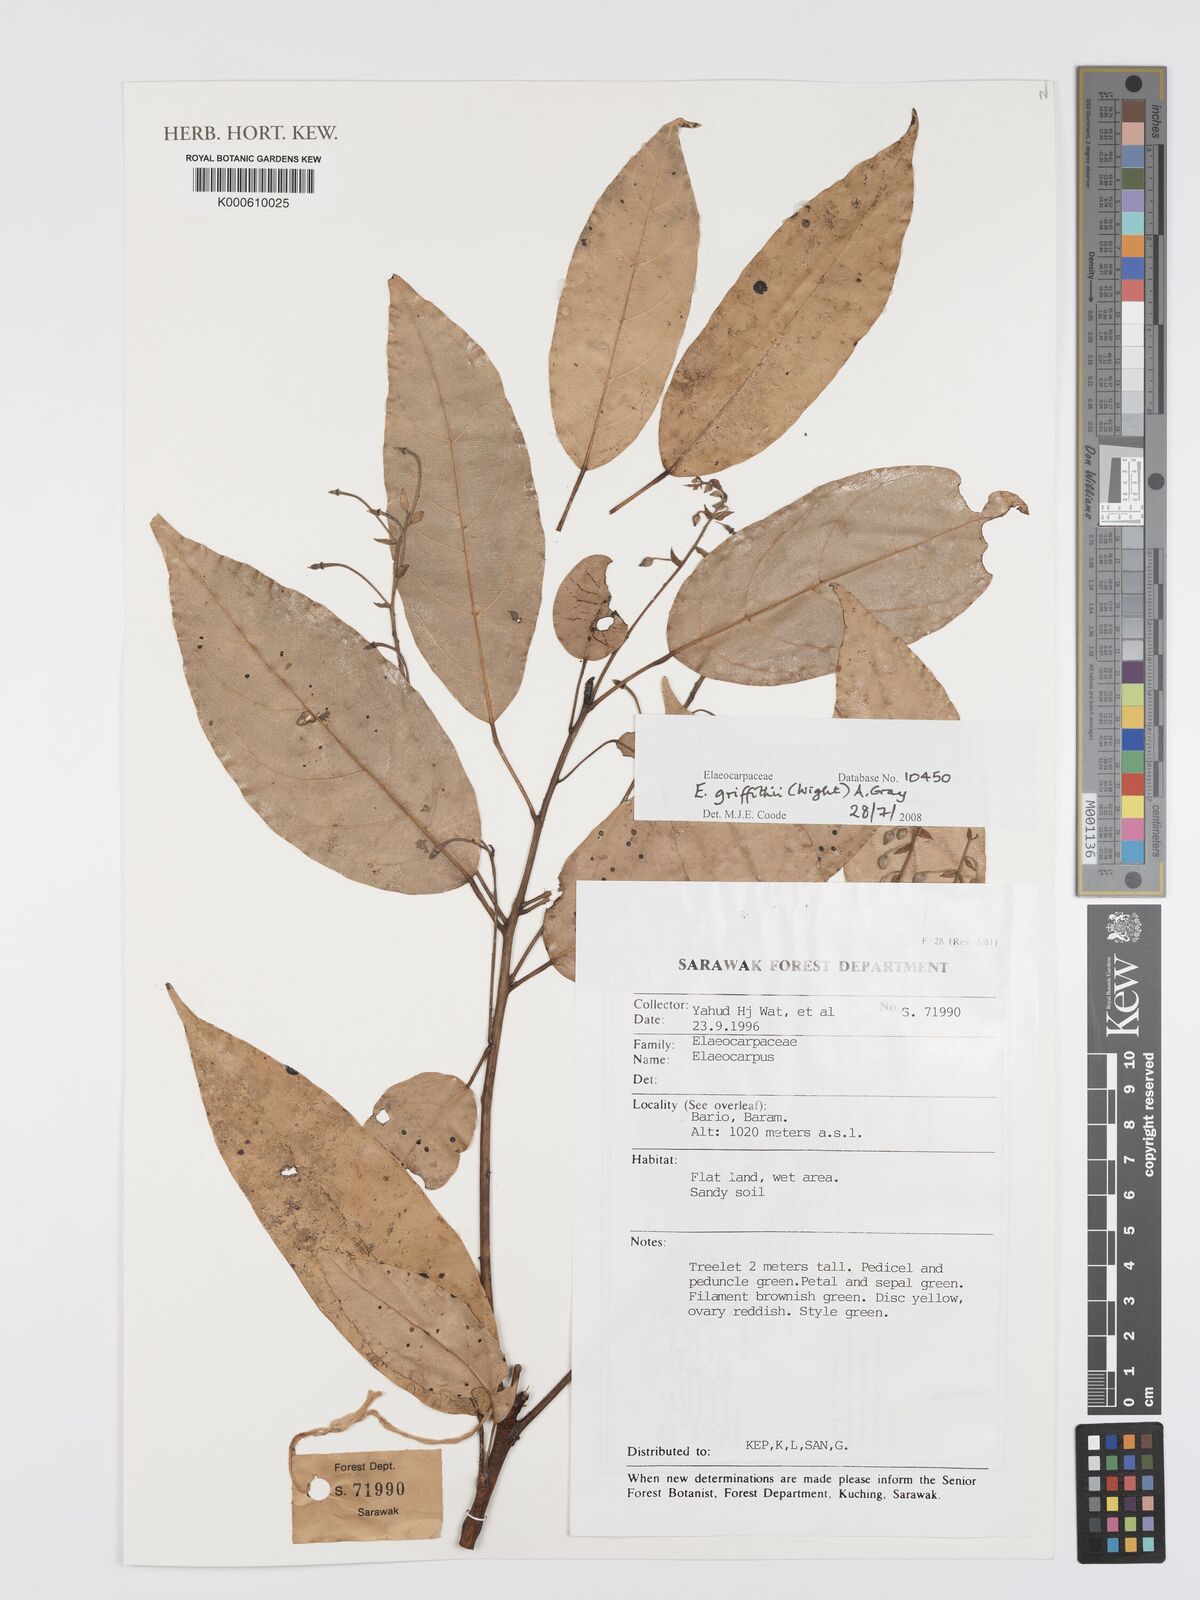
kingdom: Plantae
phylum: Tracheophyta
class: Magnoliopsida
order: Oxalidales
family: Elaeocarpaceae
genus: Elaeocarpus
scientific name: Elaeocarpus
